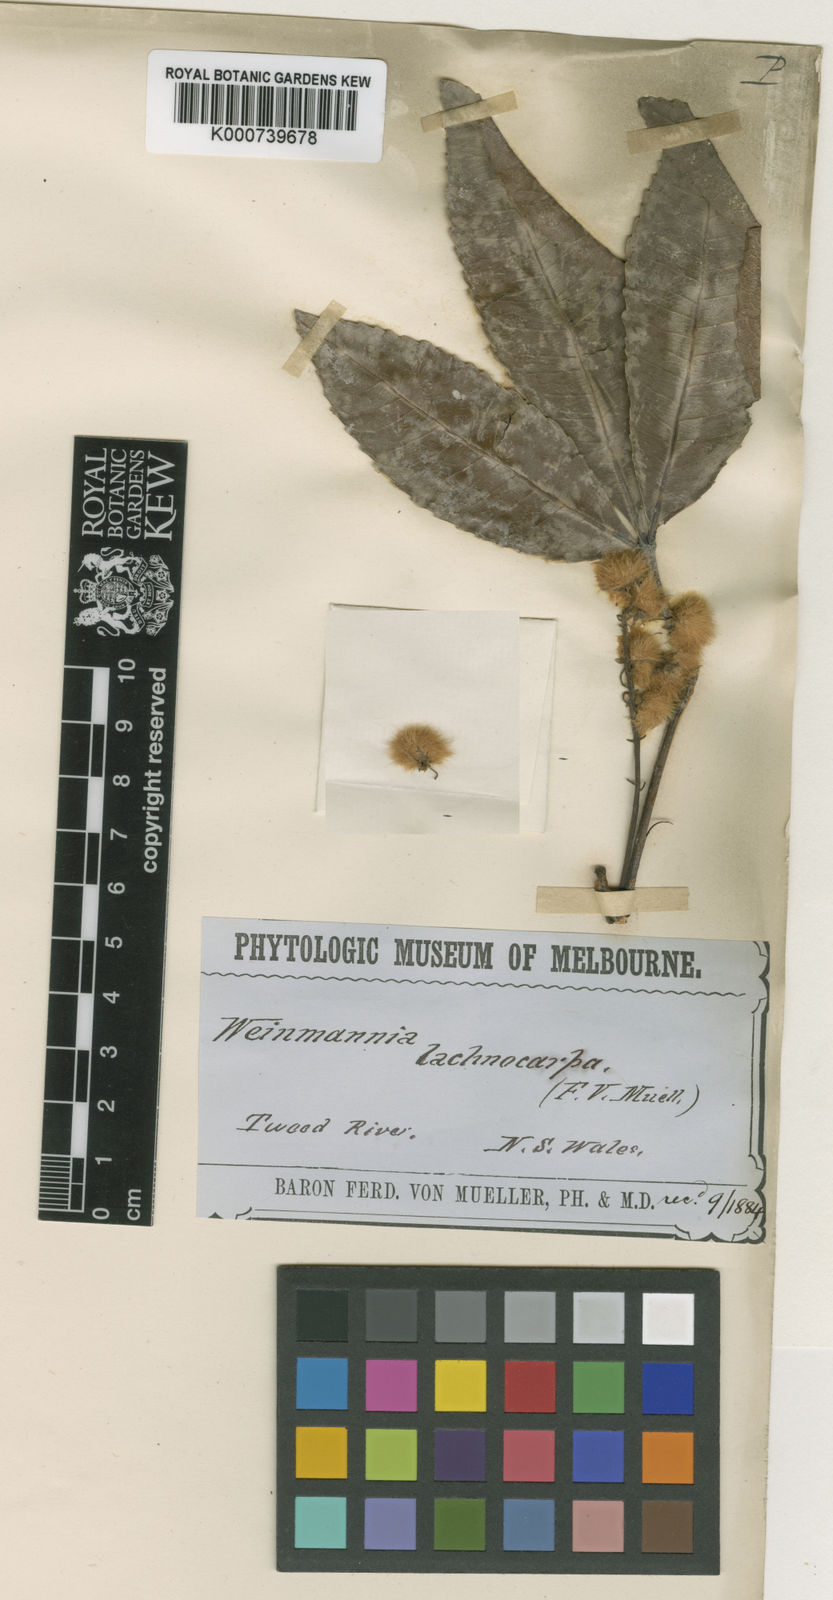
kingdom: Plantae
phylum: Tracheophyta
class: Magnoliopsida
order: Oxalidales
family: Cunoniaceae
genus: Pseudoweinmannia
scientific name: Pseudoweinmannia lachnocarpa
